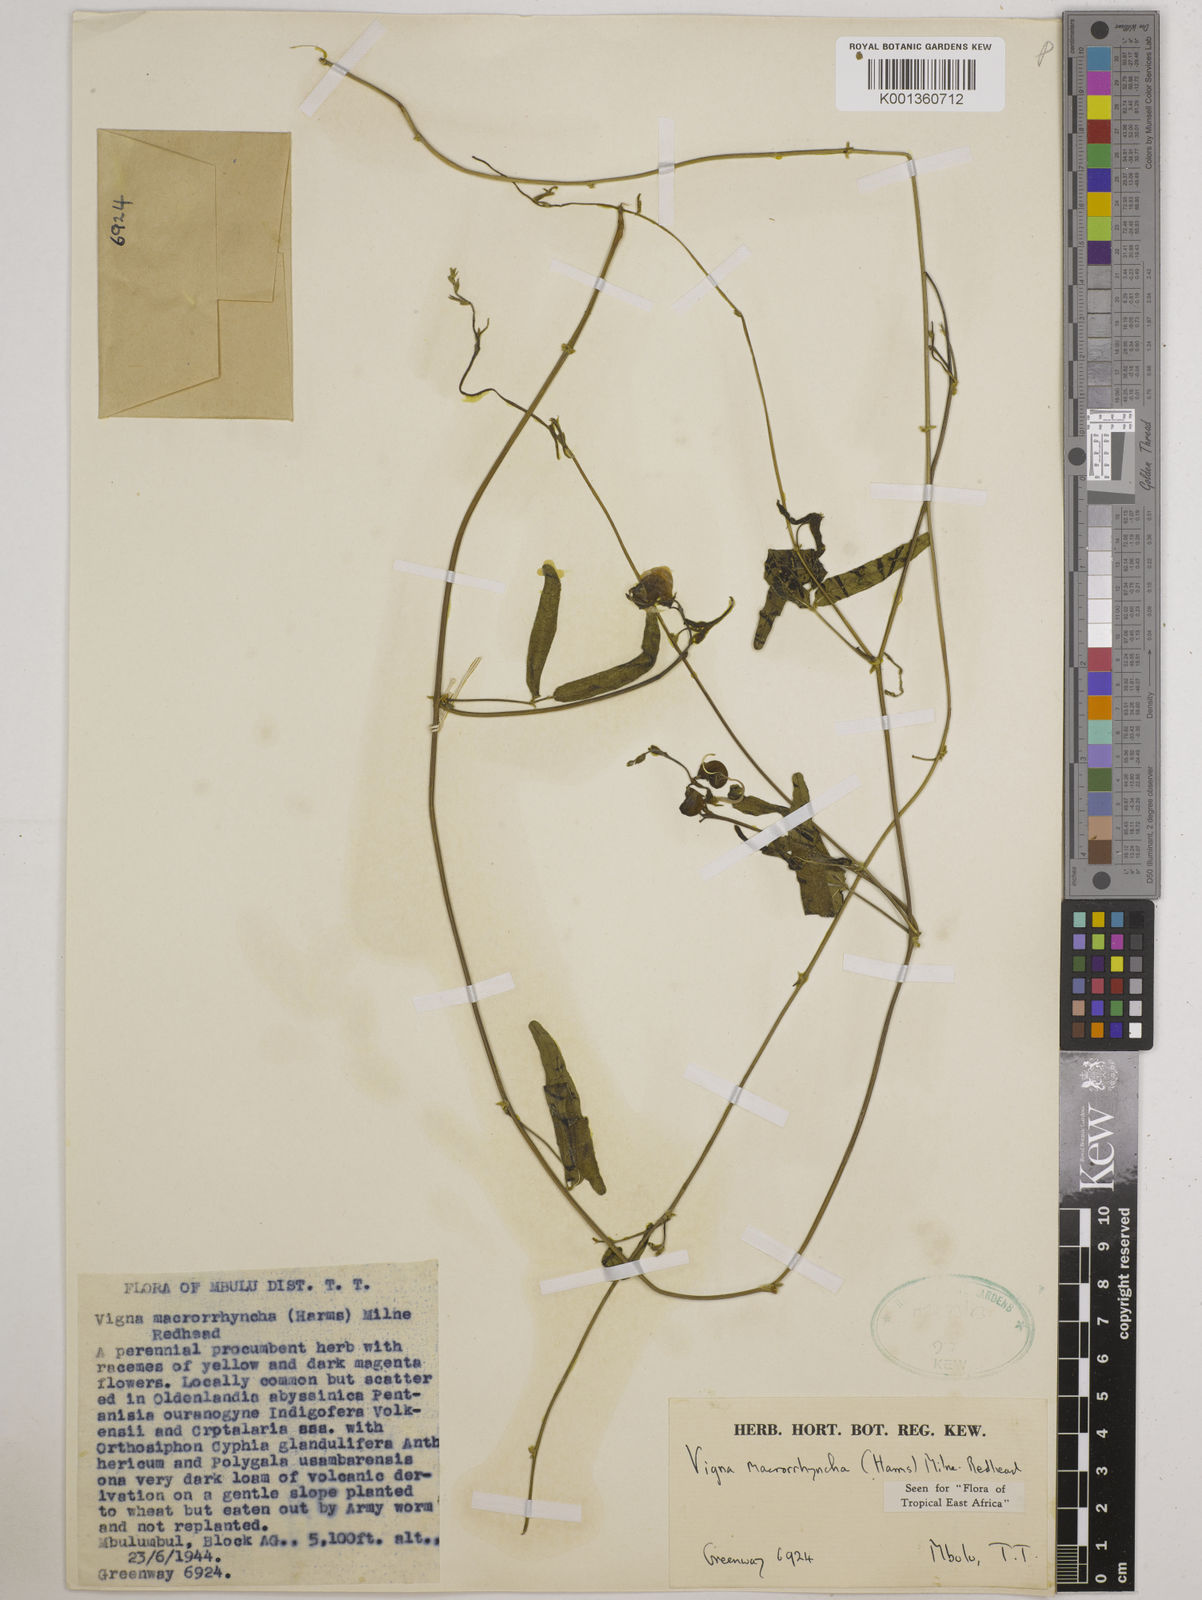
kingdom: Plantae
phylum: Tracheophyta
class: Magnoliopsida
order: Fabales
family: Fabaceae
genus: Wajira
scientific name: Wajira grahamiana
